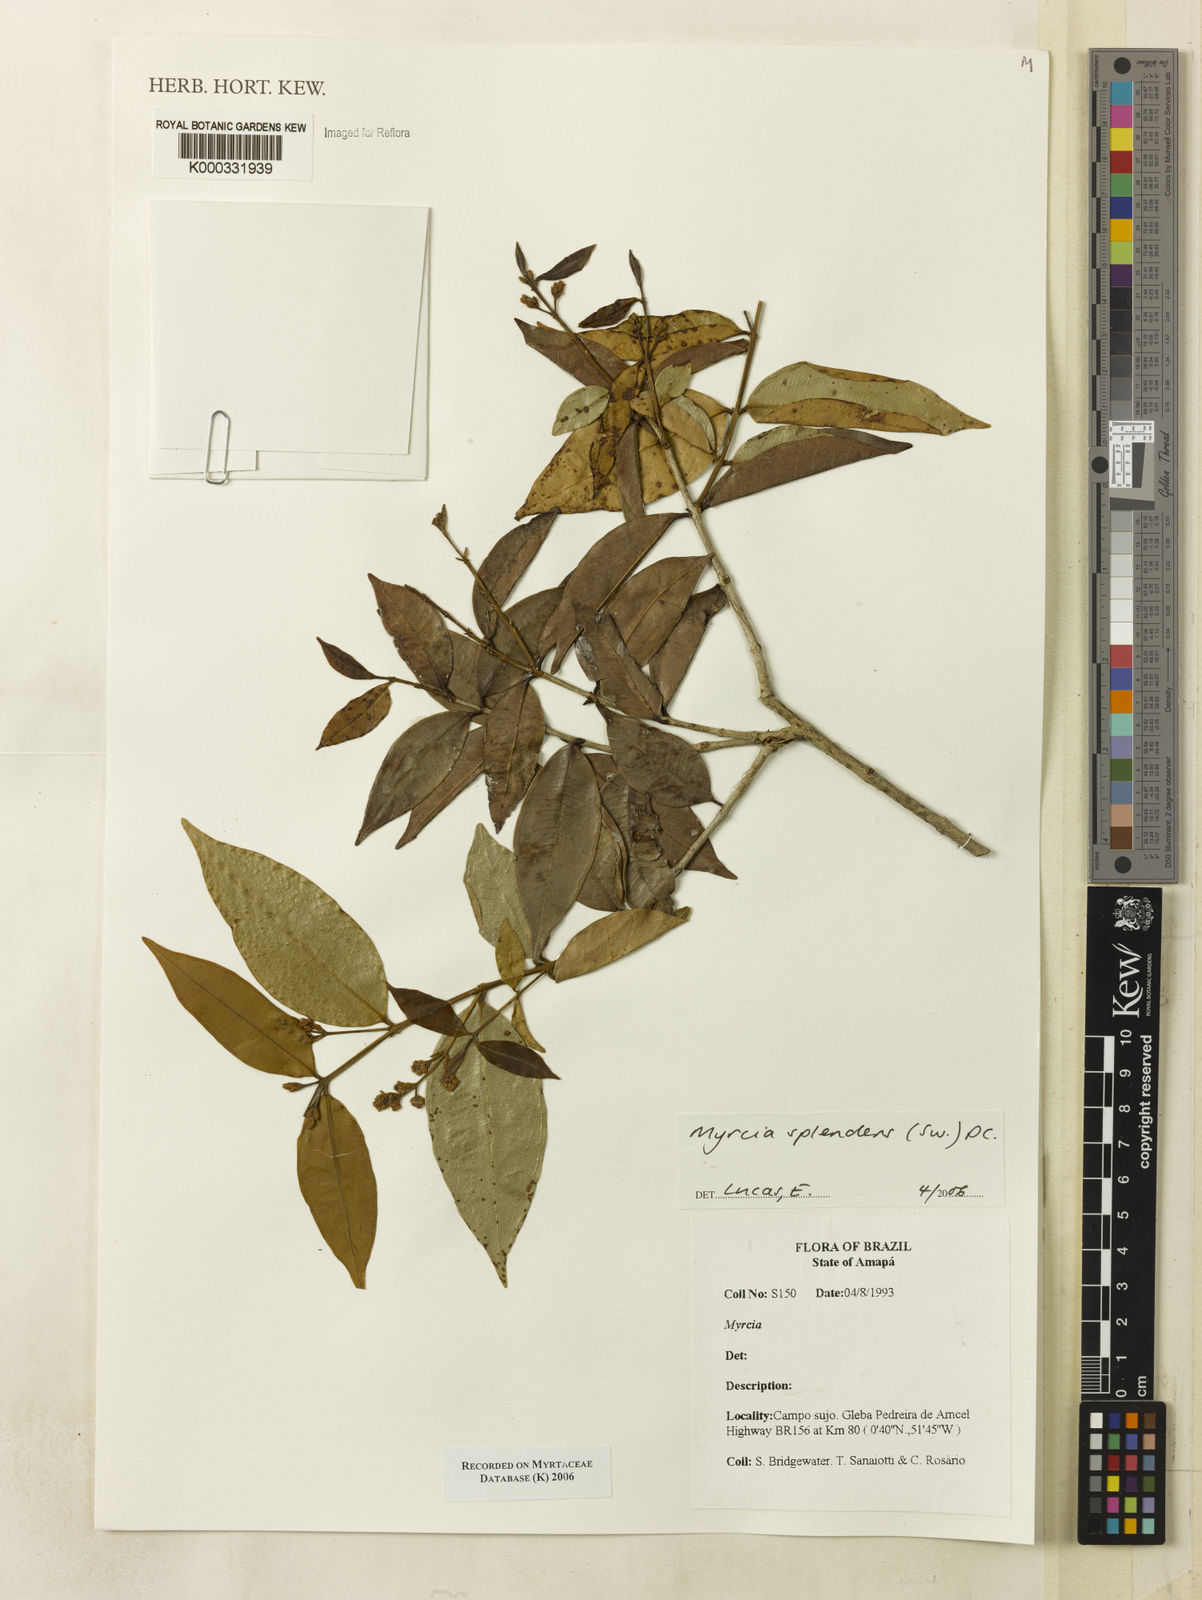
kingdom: Plantae
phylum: Tracheophyta
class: Magnoliopsida
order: Myrtales
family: Myrtaceae
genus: Myrcia
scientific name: Myrcia splendens
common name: Surinam cherry
